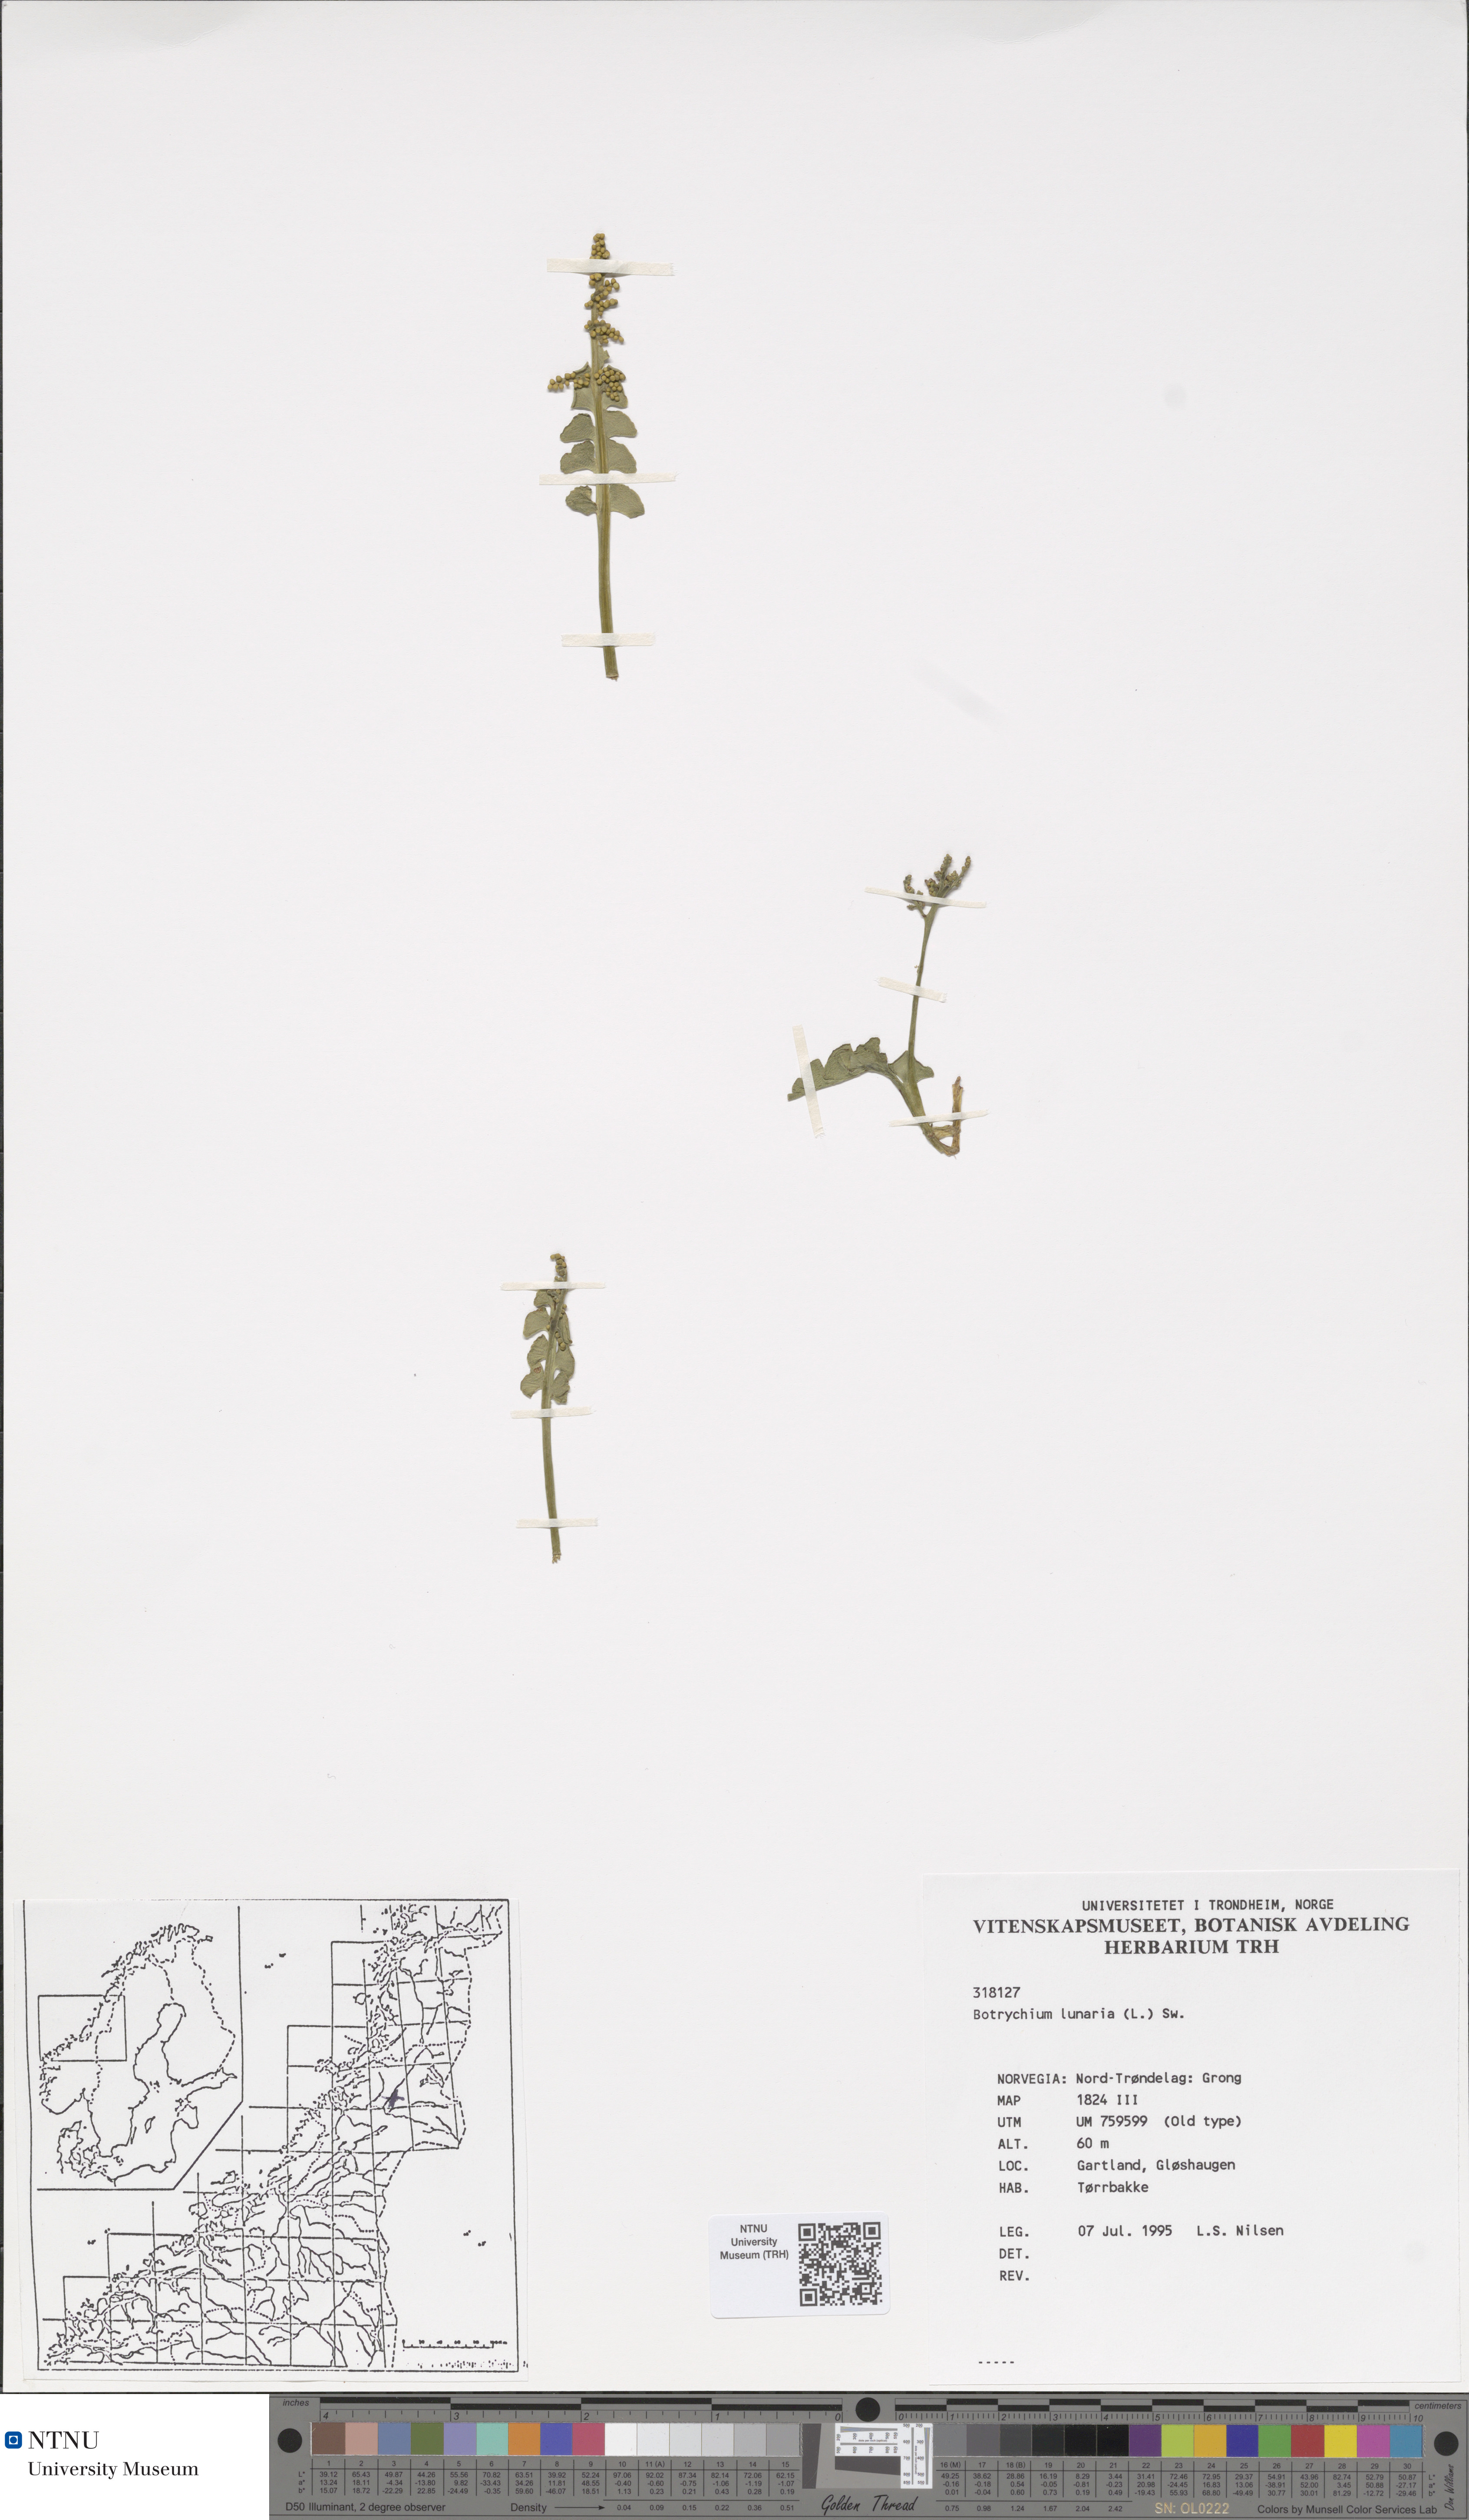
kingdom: Plantae
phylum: Tracheophyta
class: Polypodiopsida
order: Ophioglossales
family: Ophioglossaceae
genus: Botrychium
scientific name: Botrychium lunaria
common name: Moonwort
